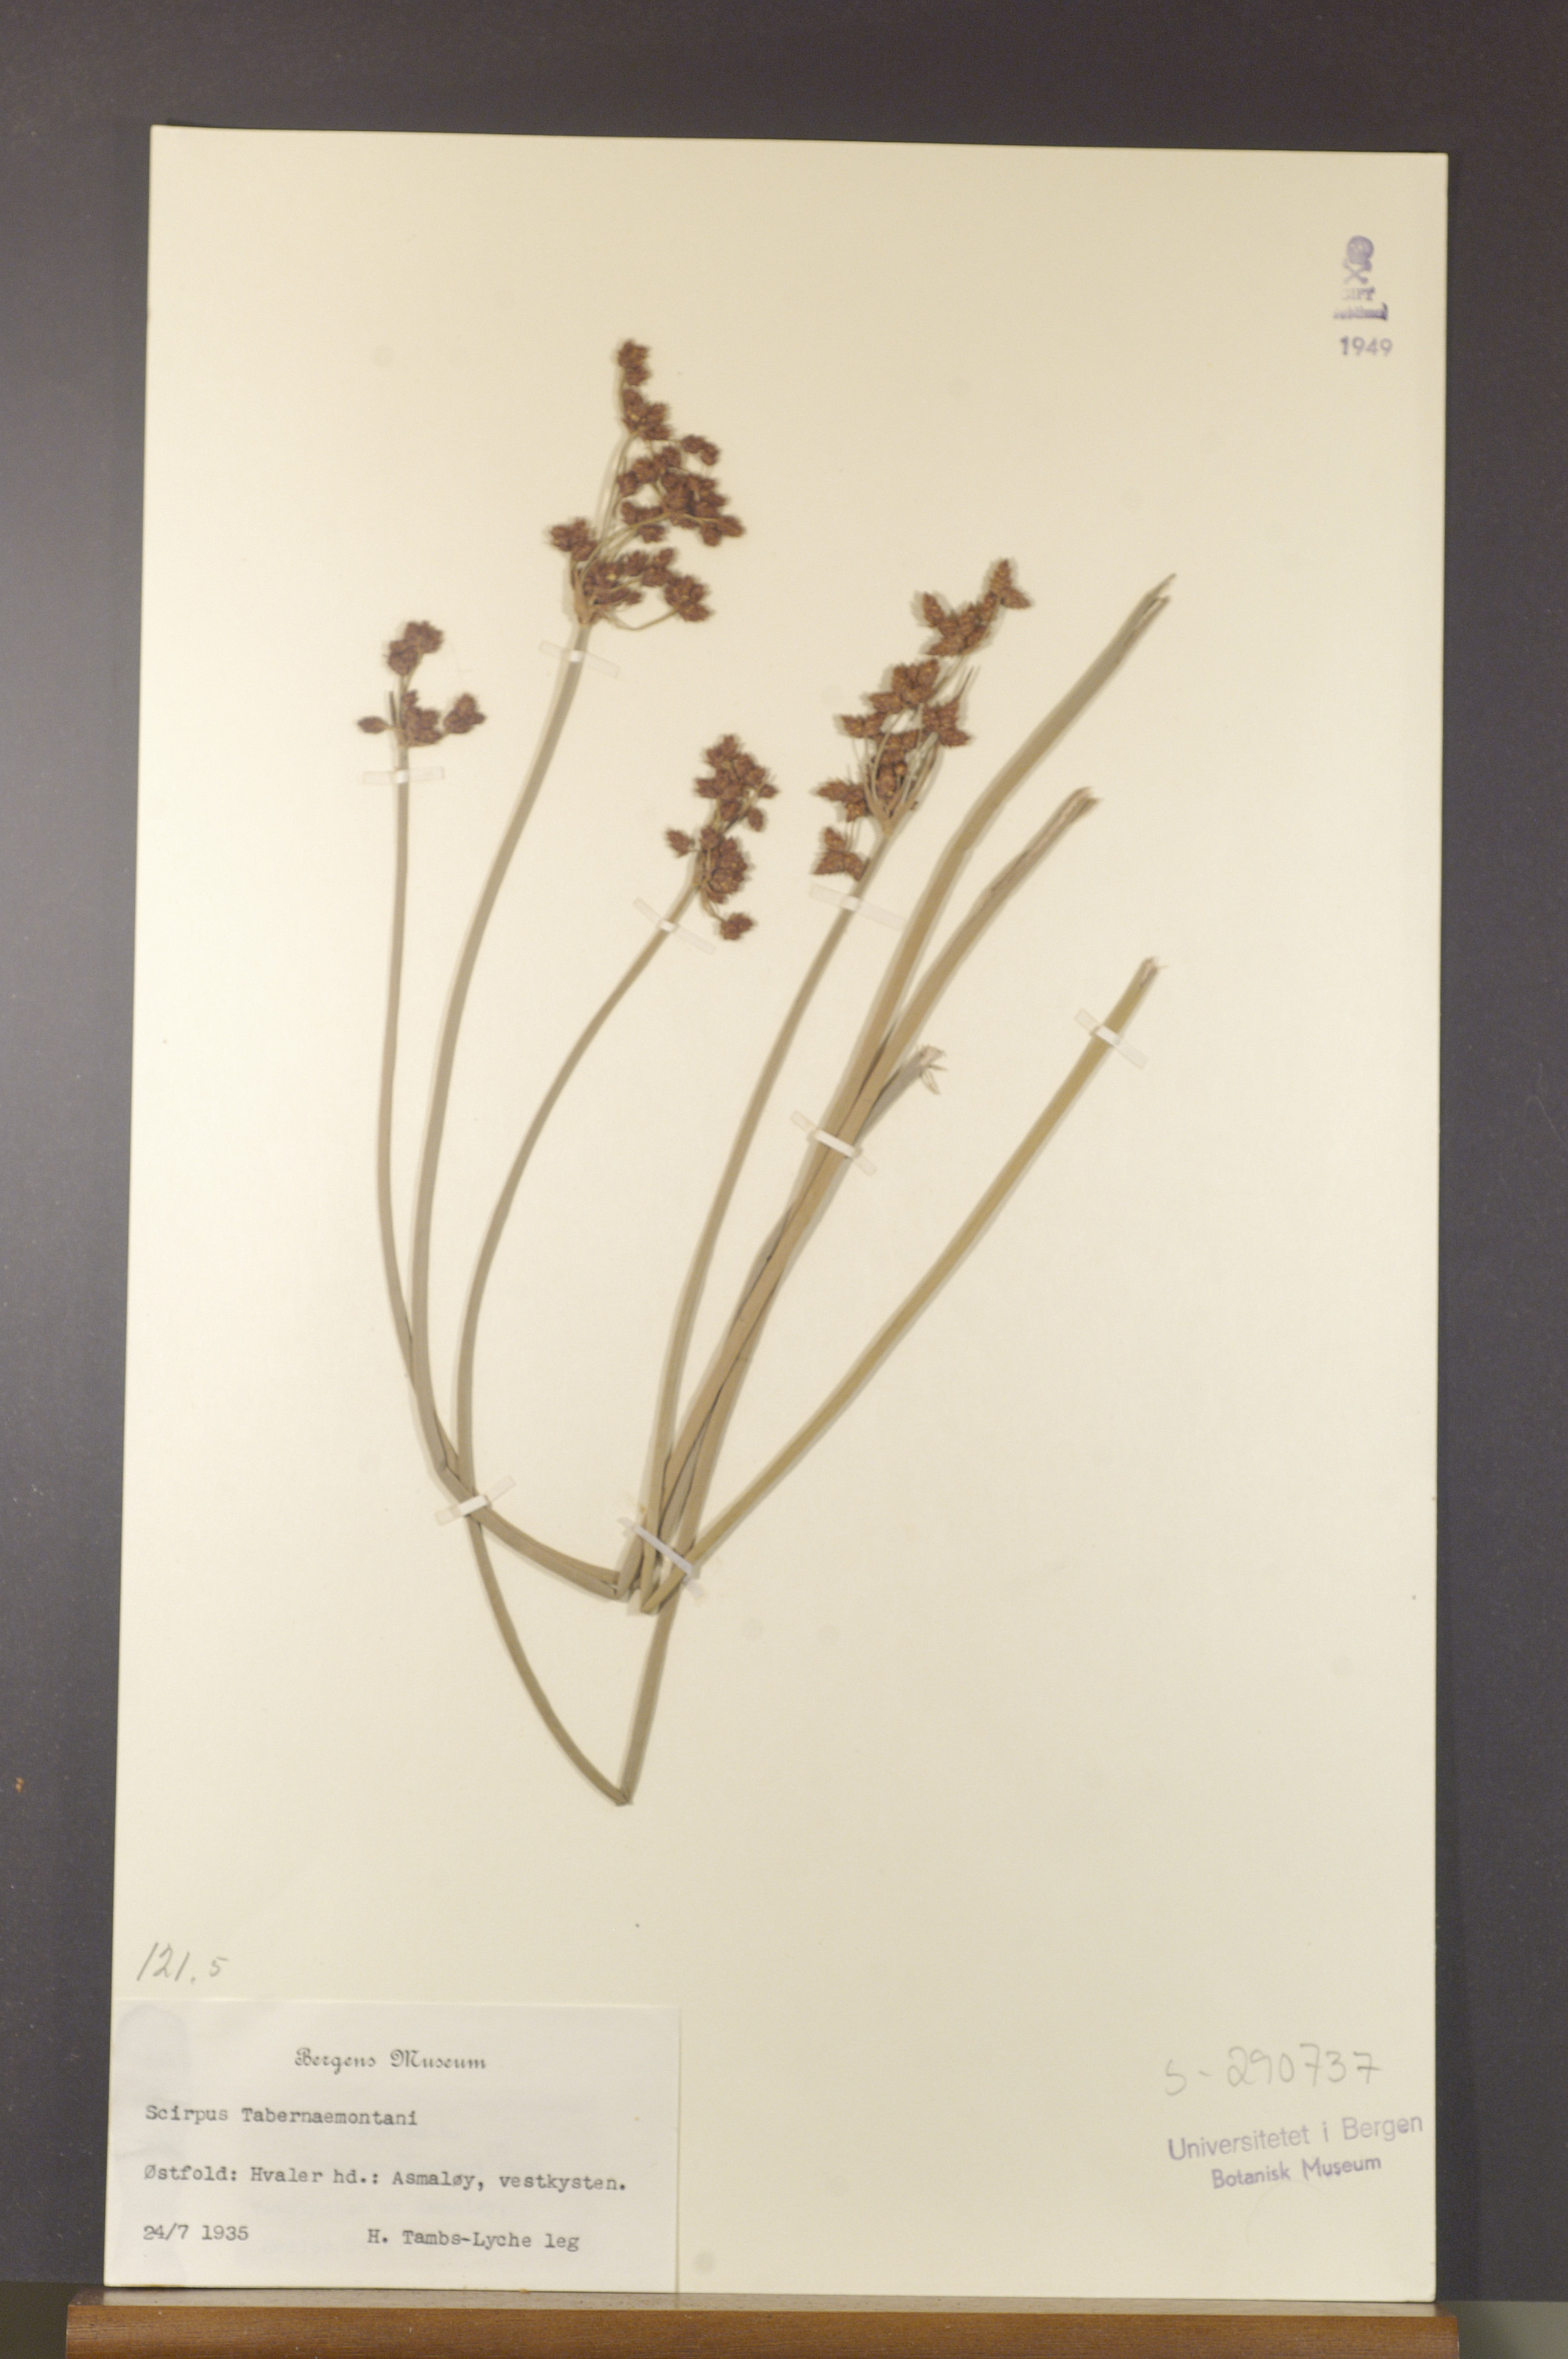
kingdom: Plantae
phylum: Tracheophyta
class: Liliopsida
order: Poales
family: Cyperaceae
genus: Schoenoplectus
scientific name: Schoenoplectus tabernaemontani
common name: Grey club-rush
